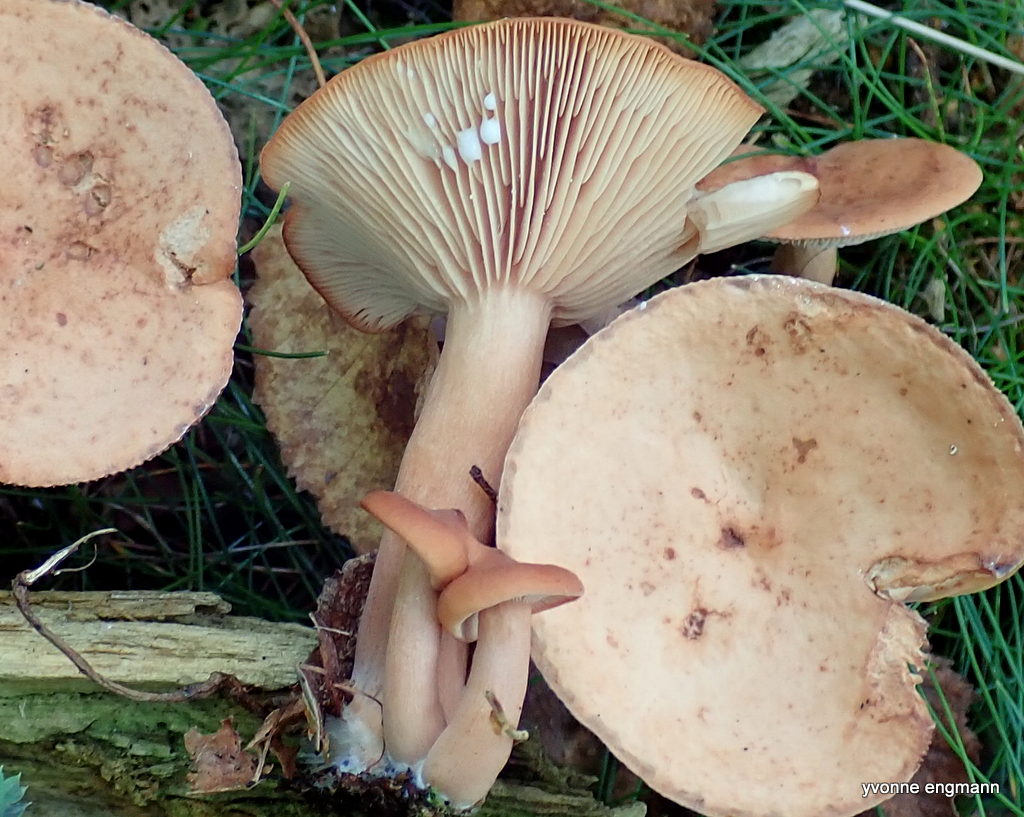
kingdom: Fungi
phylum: Basidiomycota
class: Agaricomycetes
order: Russulales
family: Russulaceae
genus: Lactifluus
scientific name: Lactifluus
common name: mælkehat
